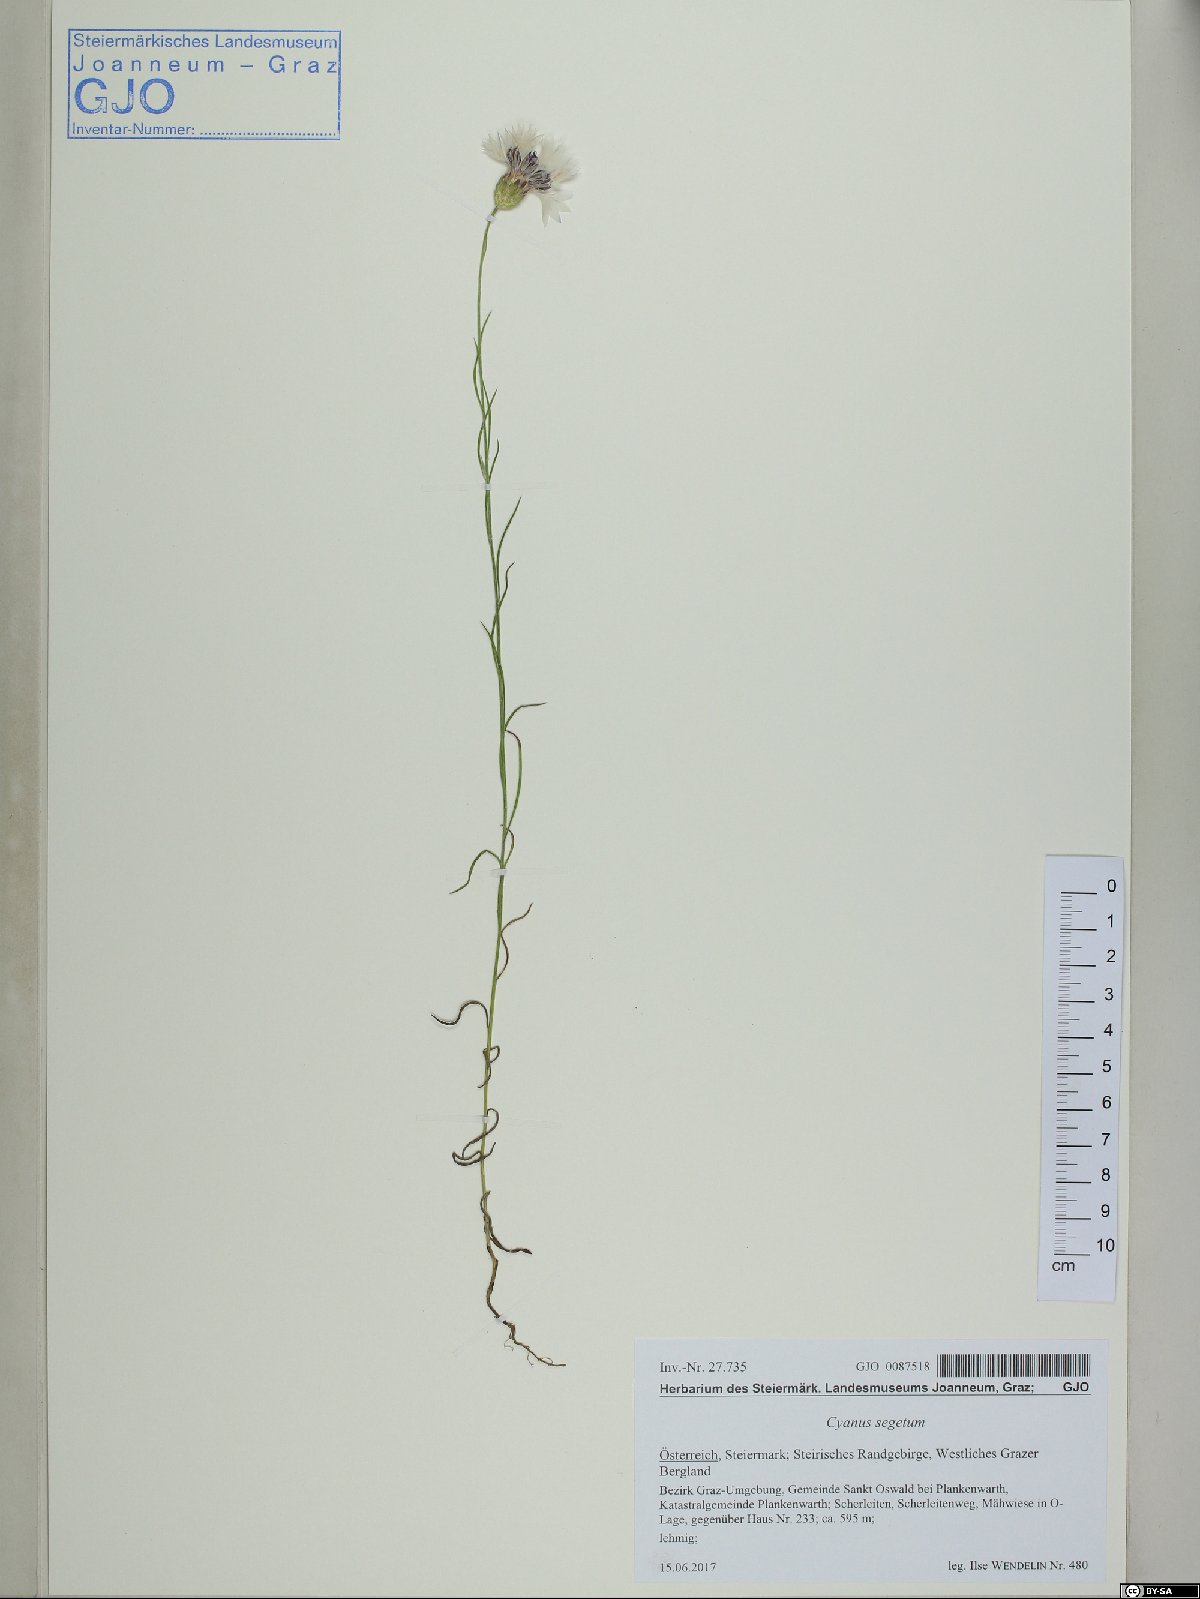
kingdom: Plantae
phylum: Tracheophyta
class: Magnoliopsida
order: Asterales
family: Asteraceae
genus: Centaurea
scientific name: Centaurea cyanus
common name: Cornflower
